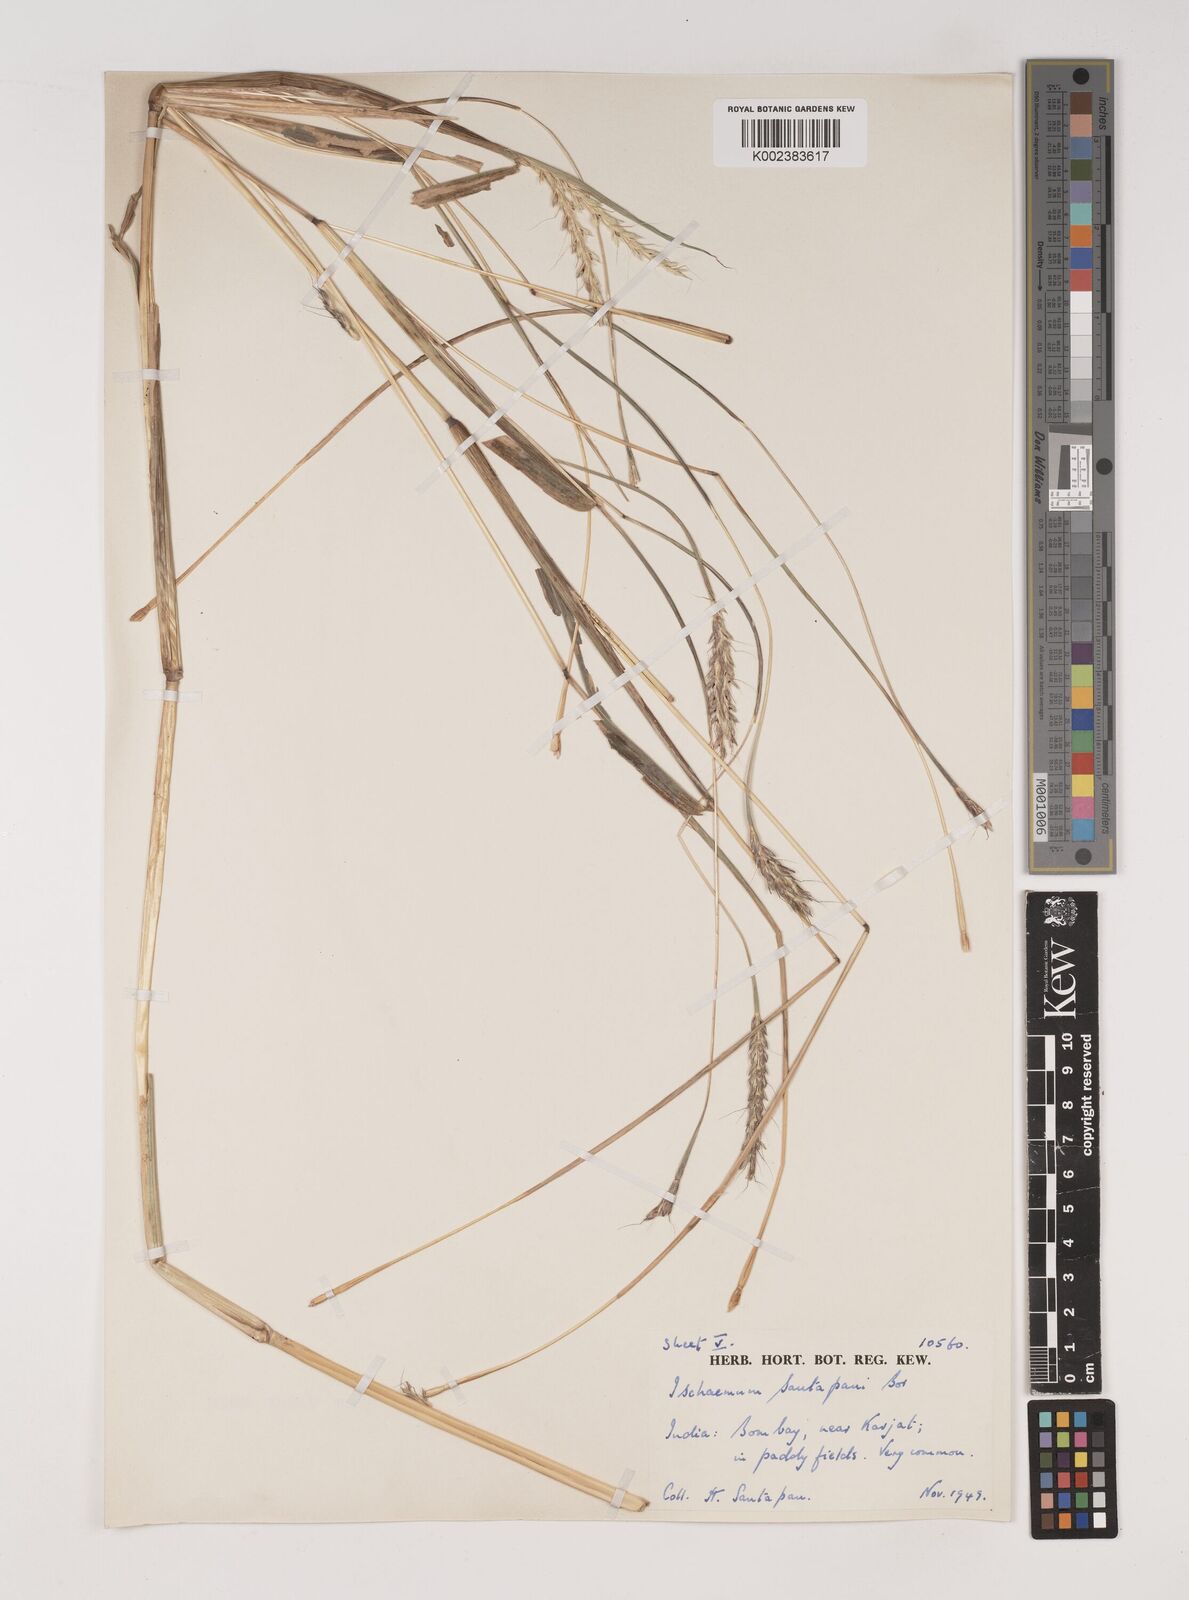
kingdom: Plantae
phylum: Tracheophyta
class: Liliopsida
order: Poales
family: Poaceae
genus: Ischaemum
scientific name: Ischaemum santapaui
